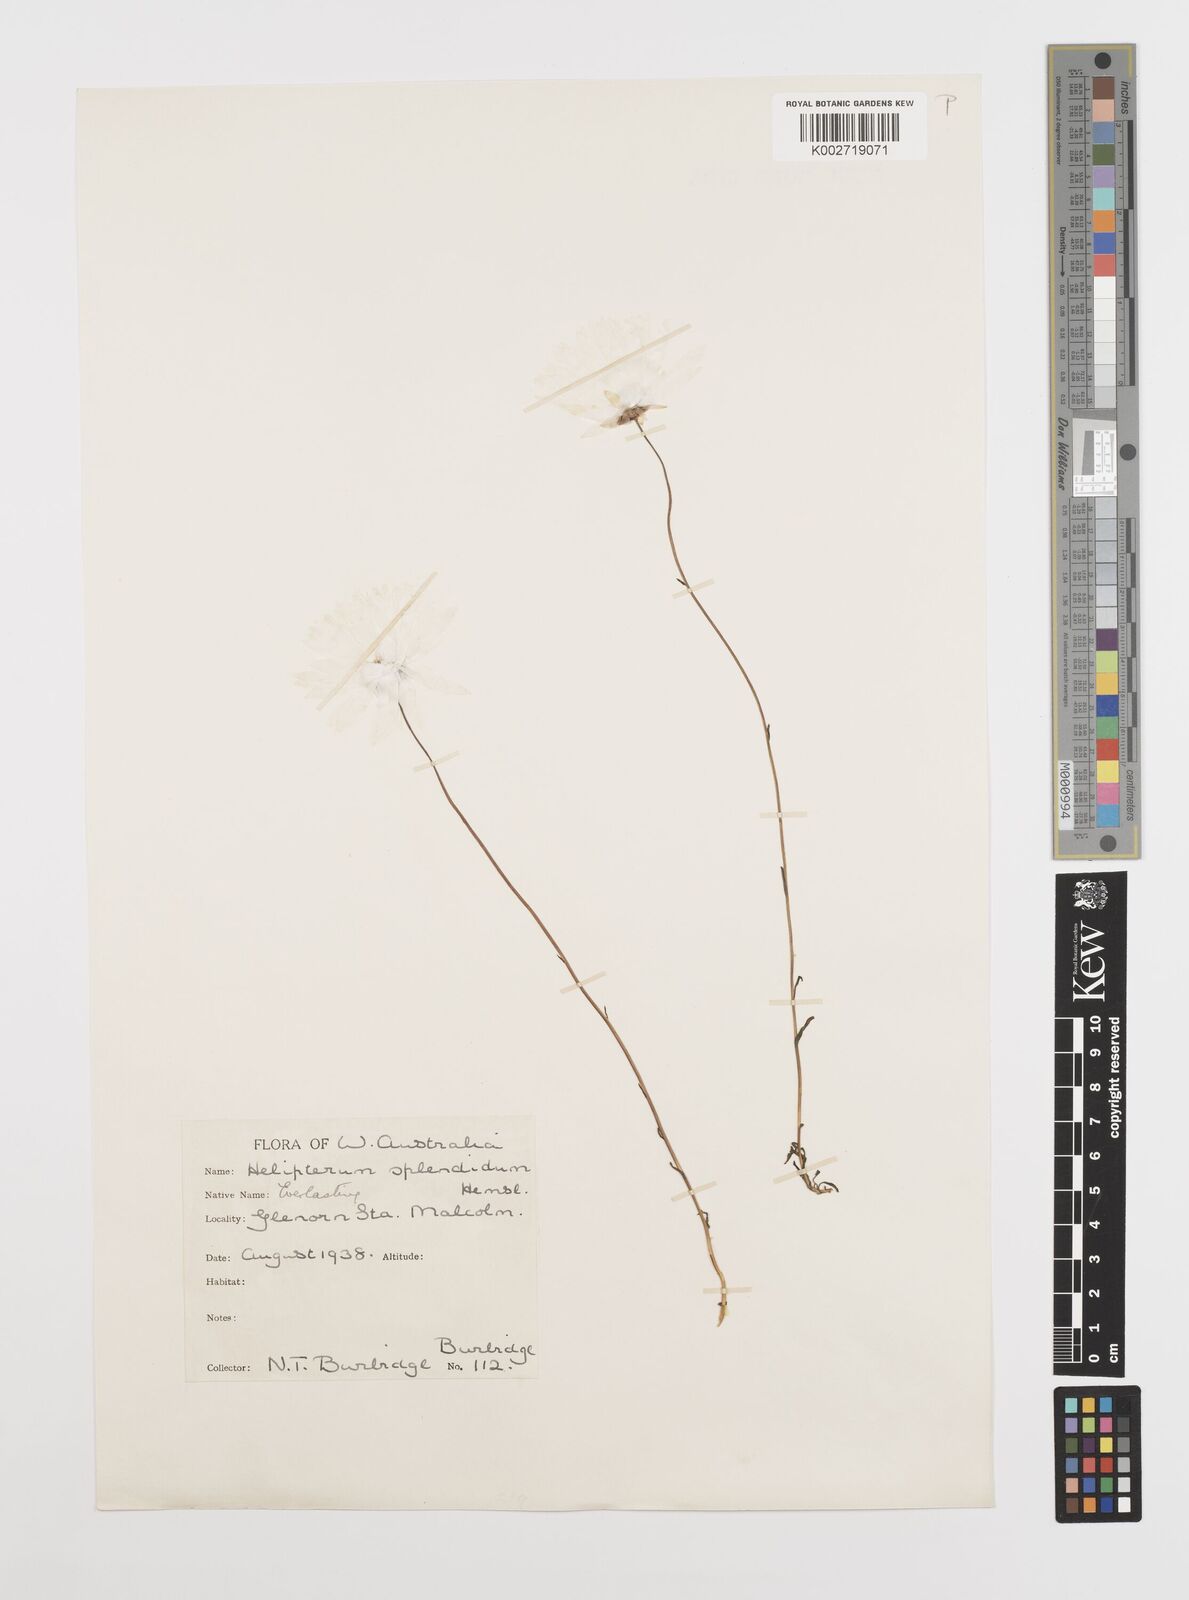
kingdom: Plantae
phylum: Tracheophyta
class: Magnoliopsida
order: Asterales
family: Asteraceae
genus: Rhodanthe
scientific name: Rhodanthe chlorocephala
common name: Rosy sunray
